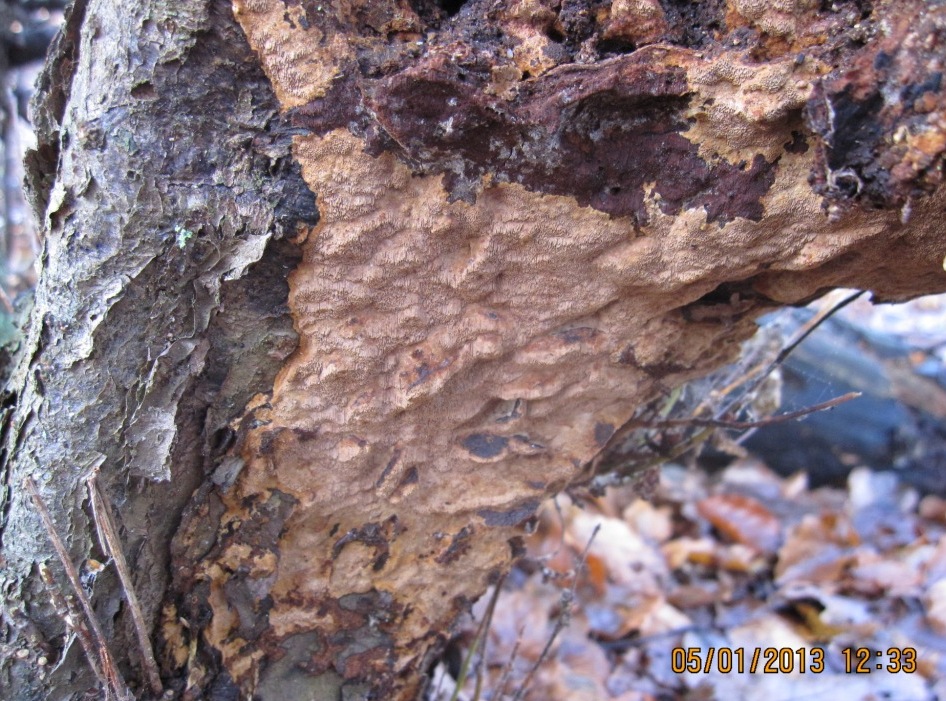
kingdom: Fungi
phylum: Basidiomycota
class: Agaricomycetes
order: Hymenochaetales
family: Hymenochaetaceae
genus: Fuscoporia
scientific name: Fuscoporia ferruginosa
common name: rustbrun ildporesvamp
